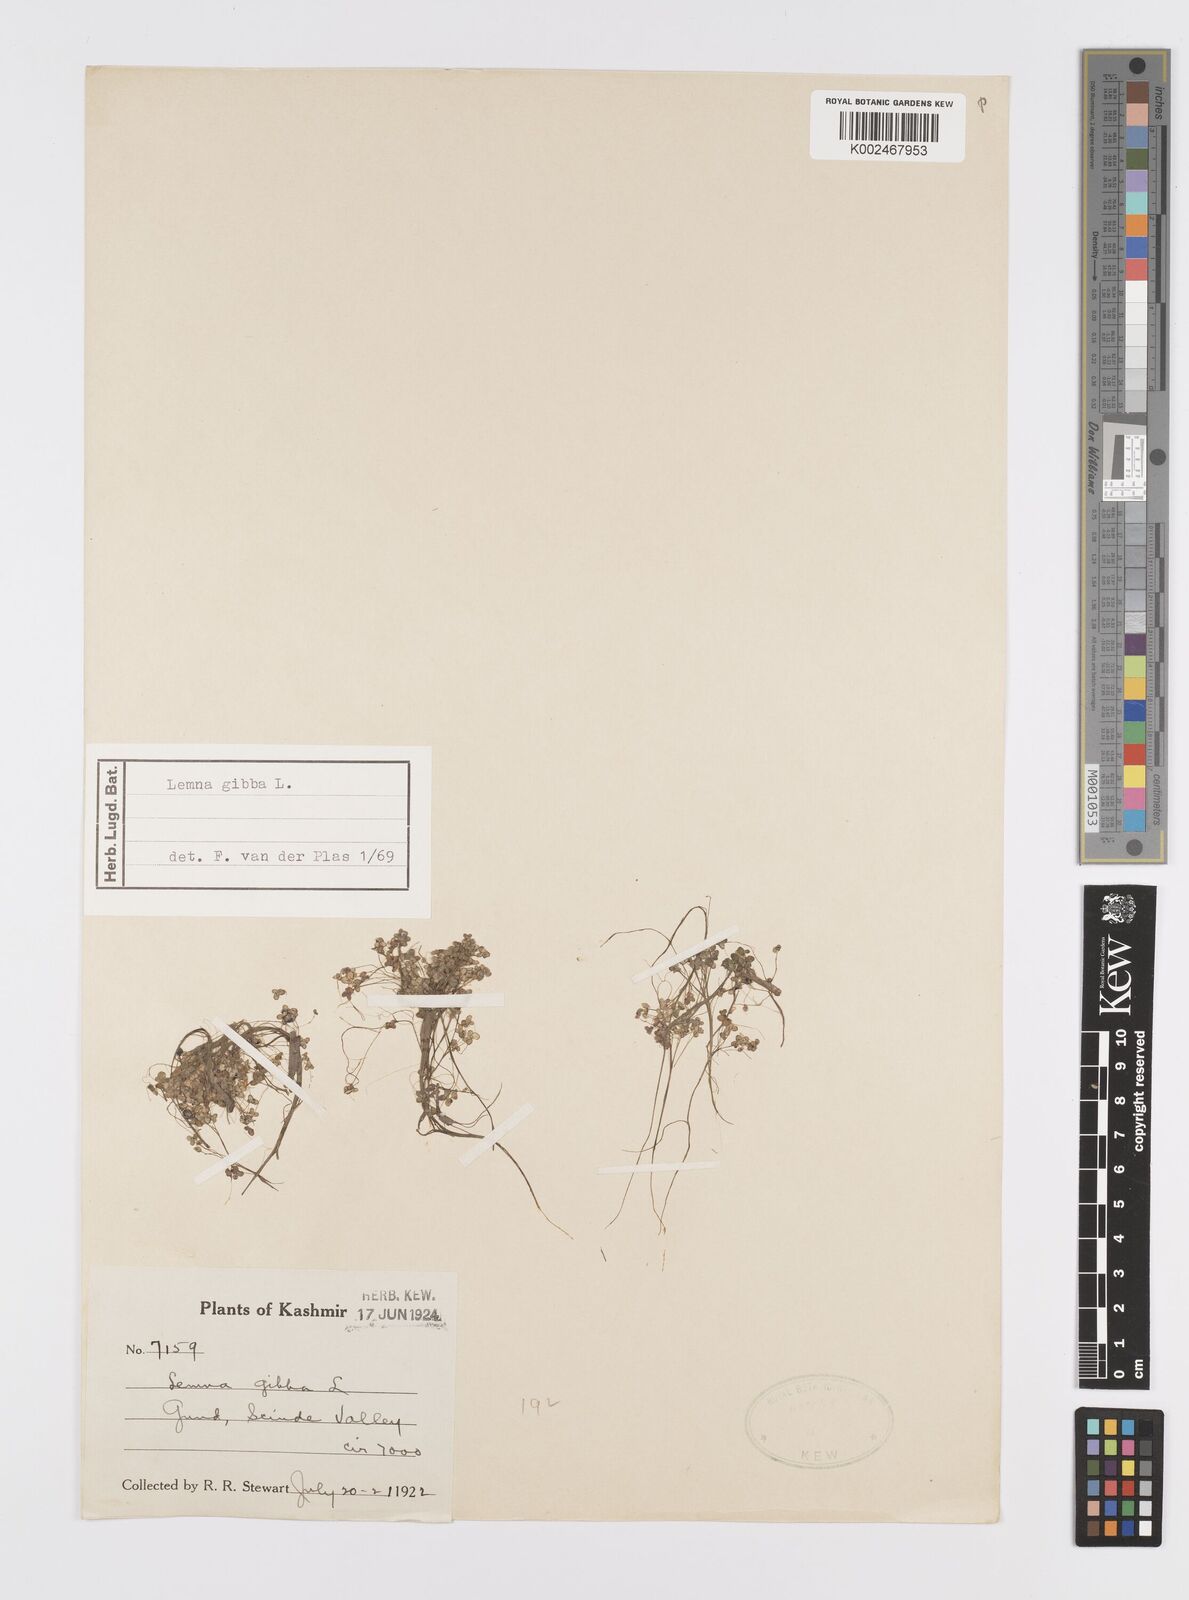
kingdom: Plantae
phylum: Tracheophyta
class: Liliopsida
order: Alismatales
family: Araceae
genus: Lemna
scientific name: Lemna gibba
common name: Fat duckweed
